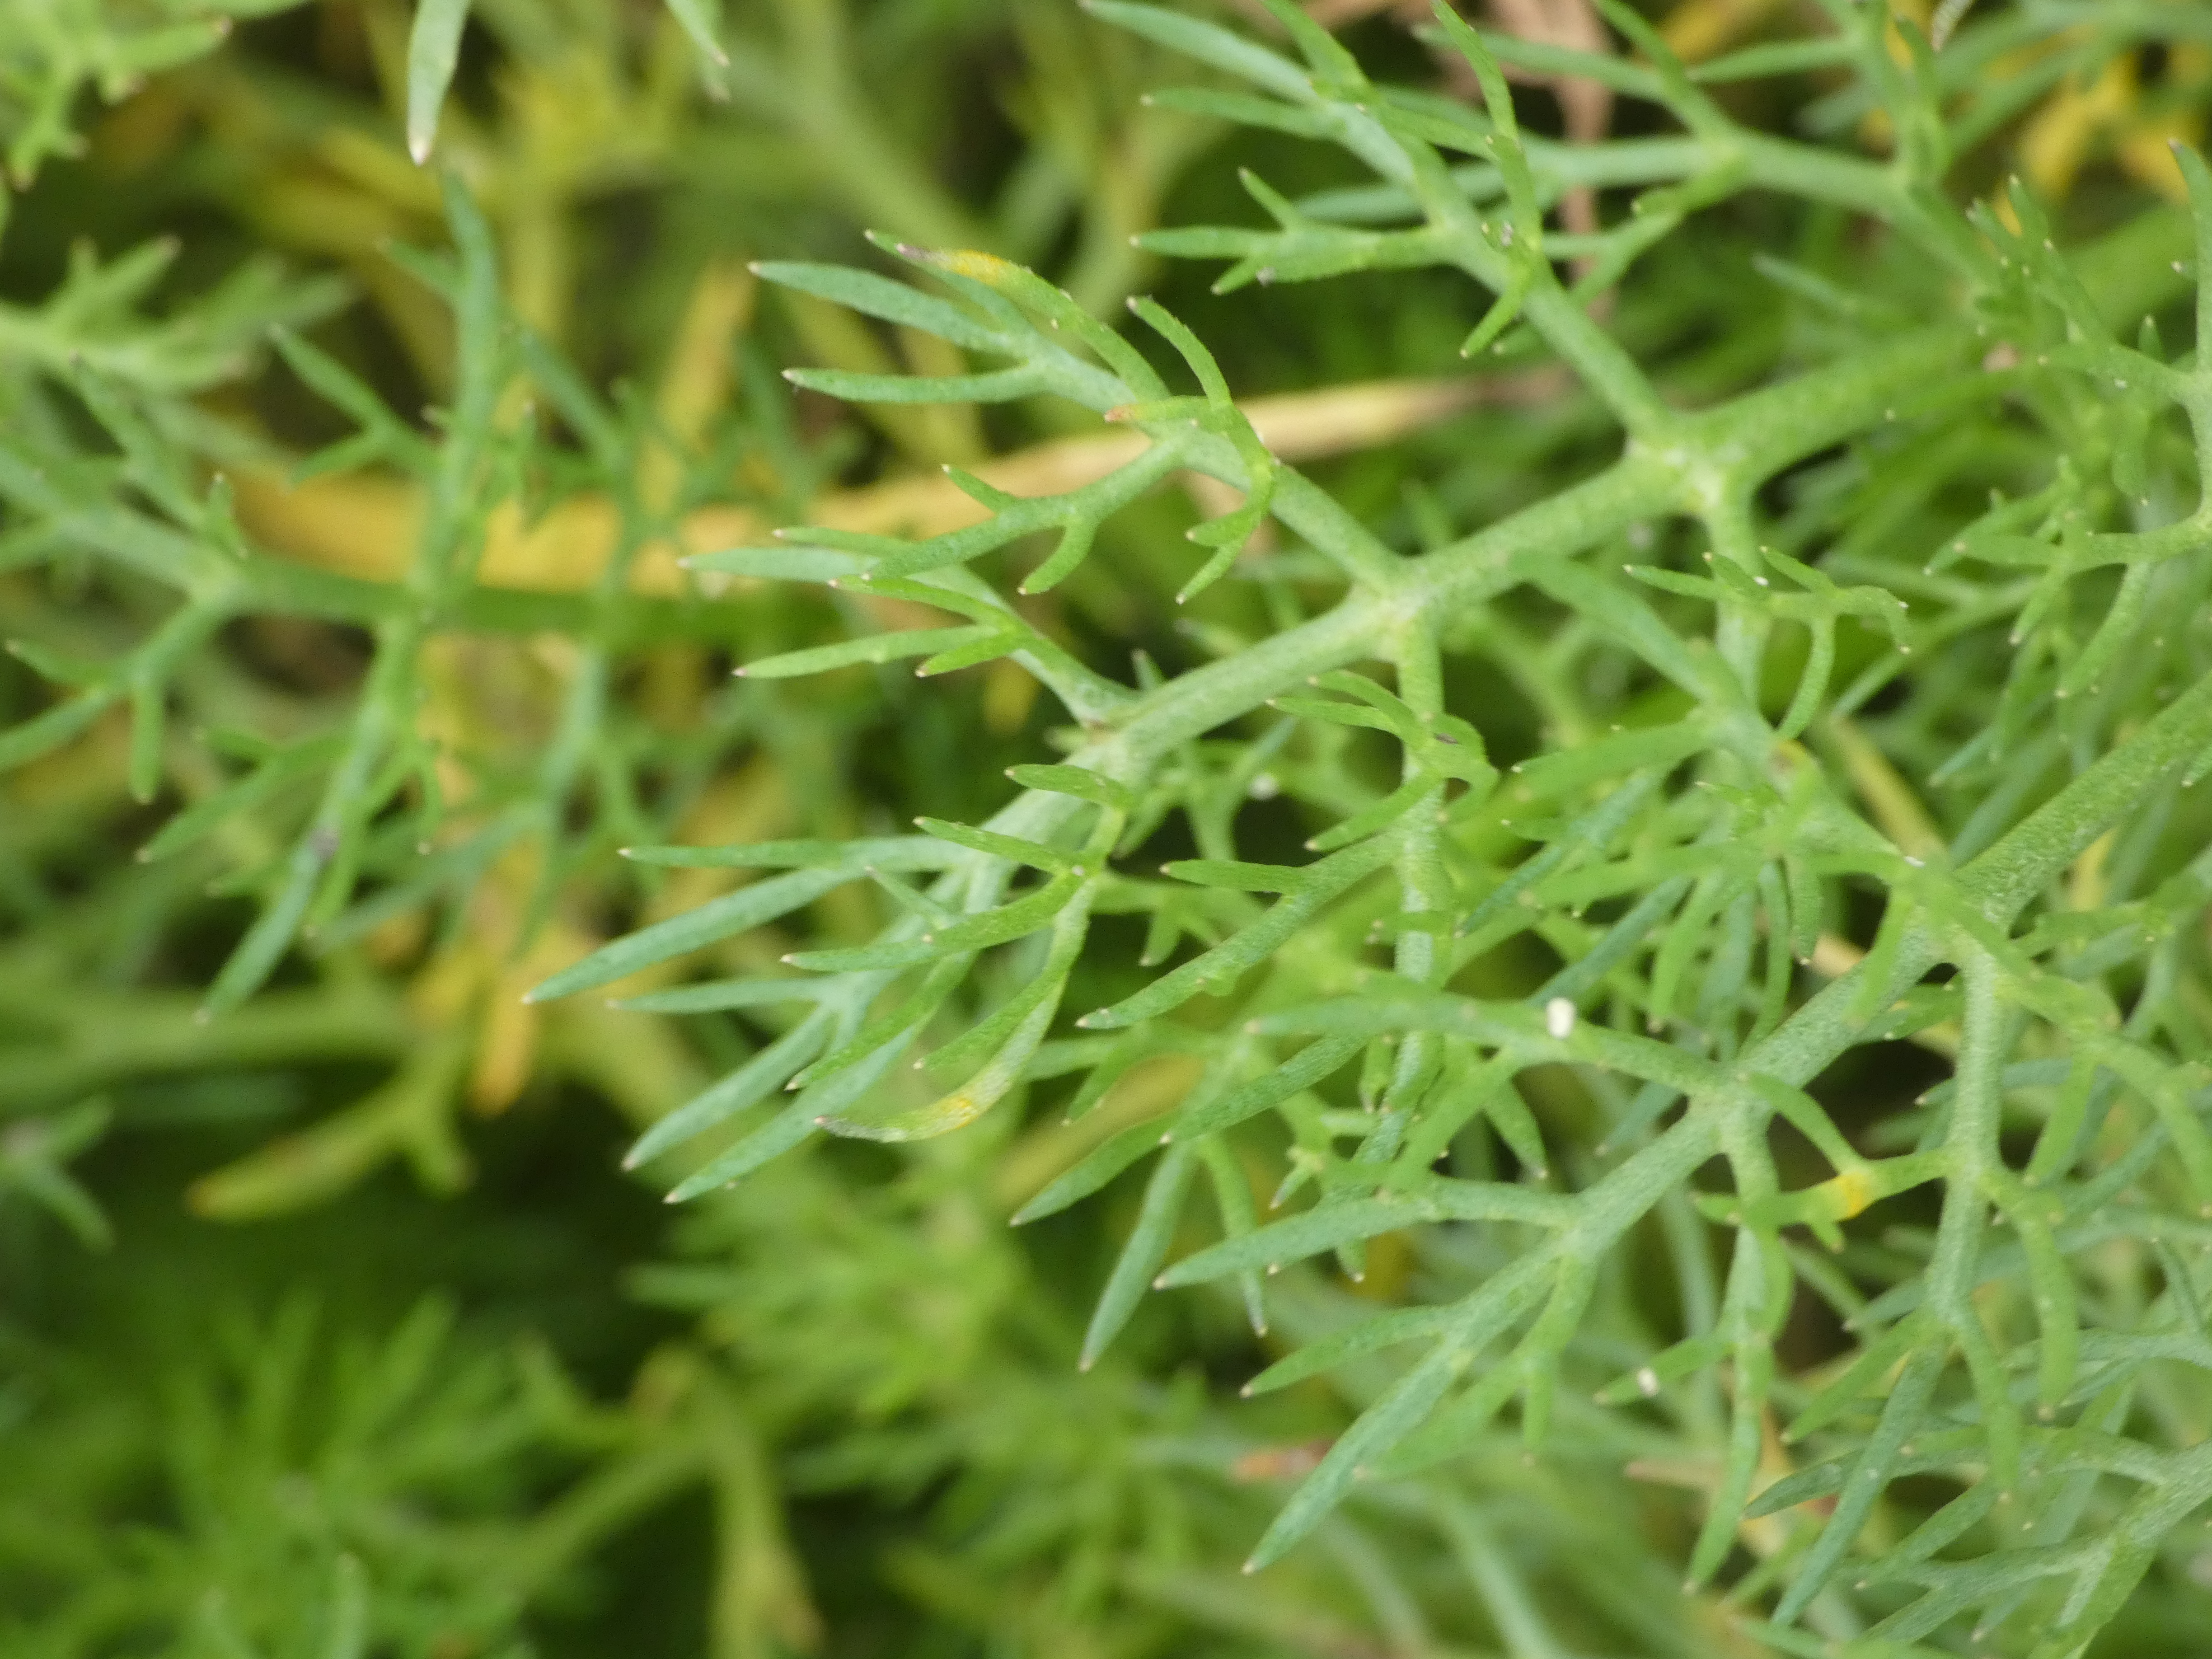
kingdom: Plantae
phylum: Tracheophyta
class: Magnoliopsida
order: Asterales
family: Asteraceae
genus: Matricaria
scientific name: Matricaria chamomilla
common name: Vellugtende kamille
